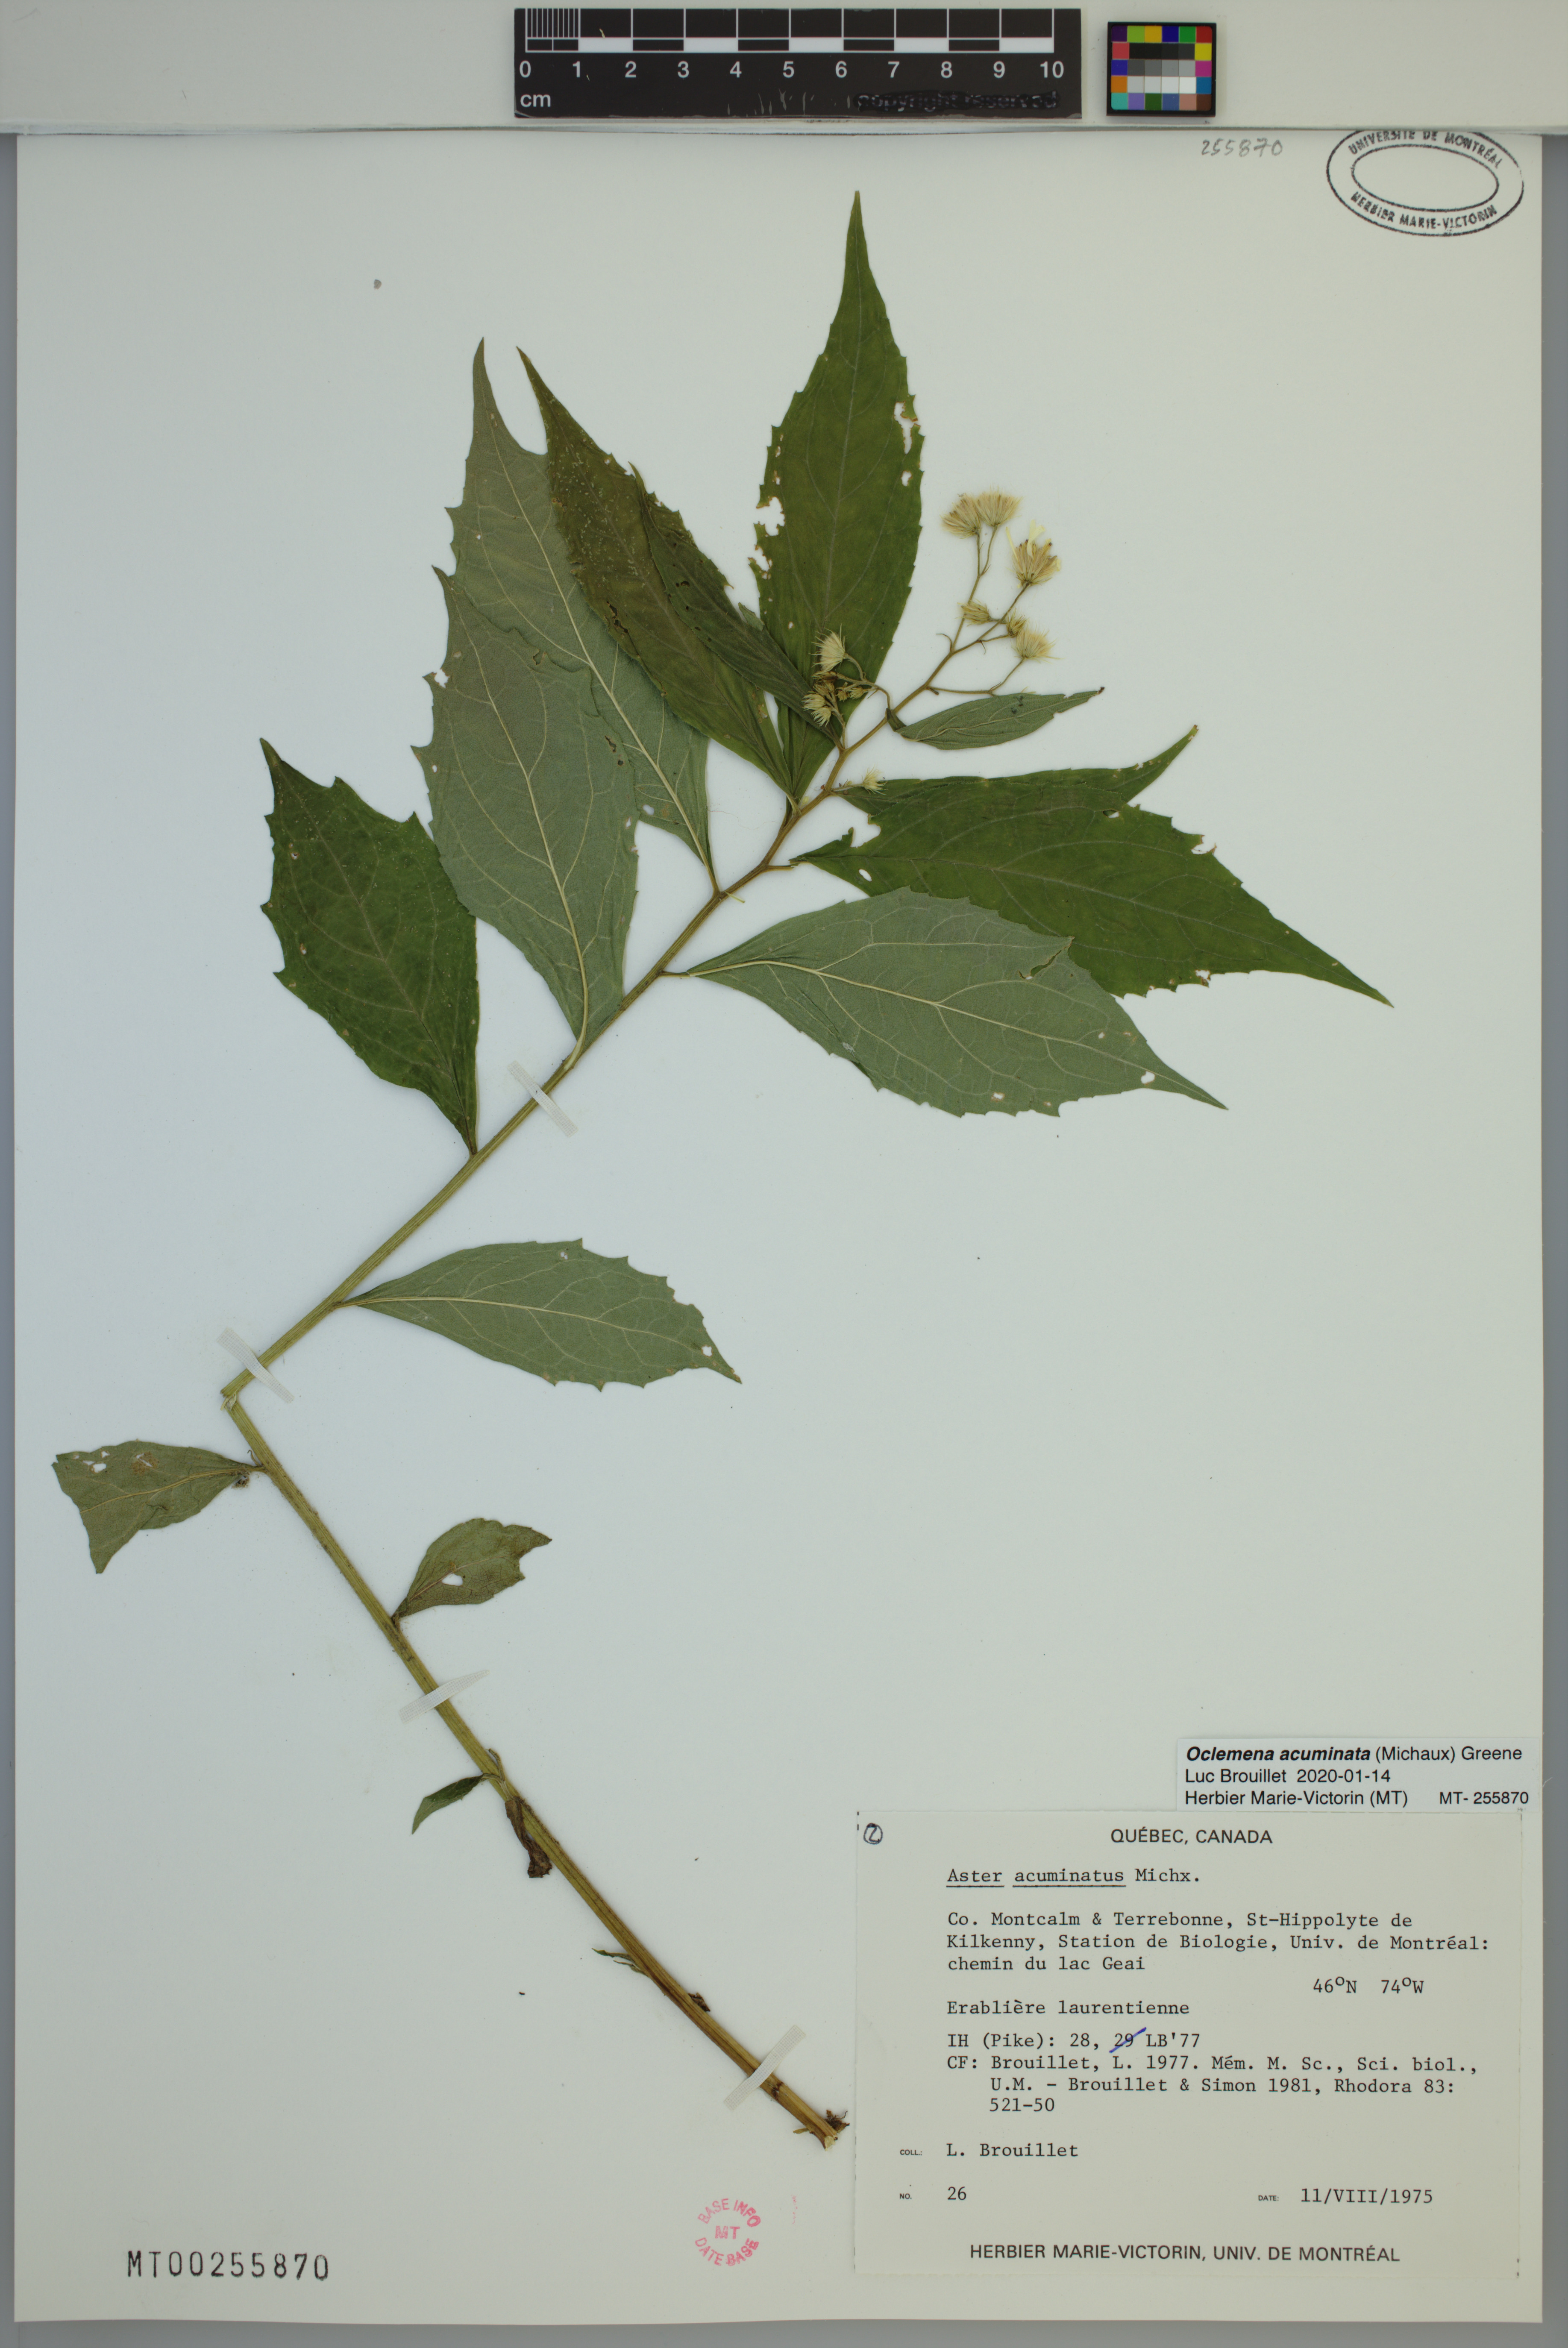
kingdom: Plantae
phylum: Tracheophyta
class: Magnoliopsida
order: Asterales
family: Asteraceae
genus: Oclemena
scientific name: Oclemena acuminata
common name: Mountain aster
